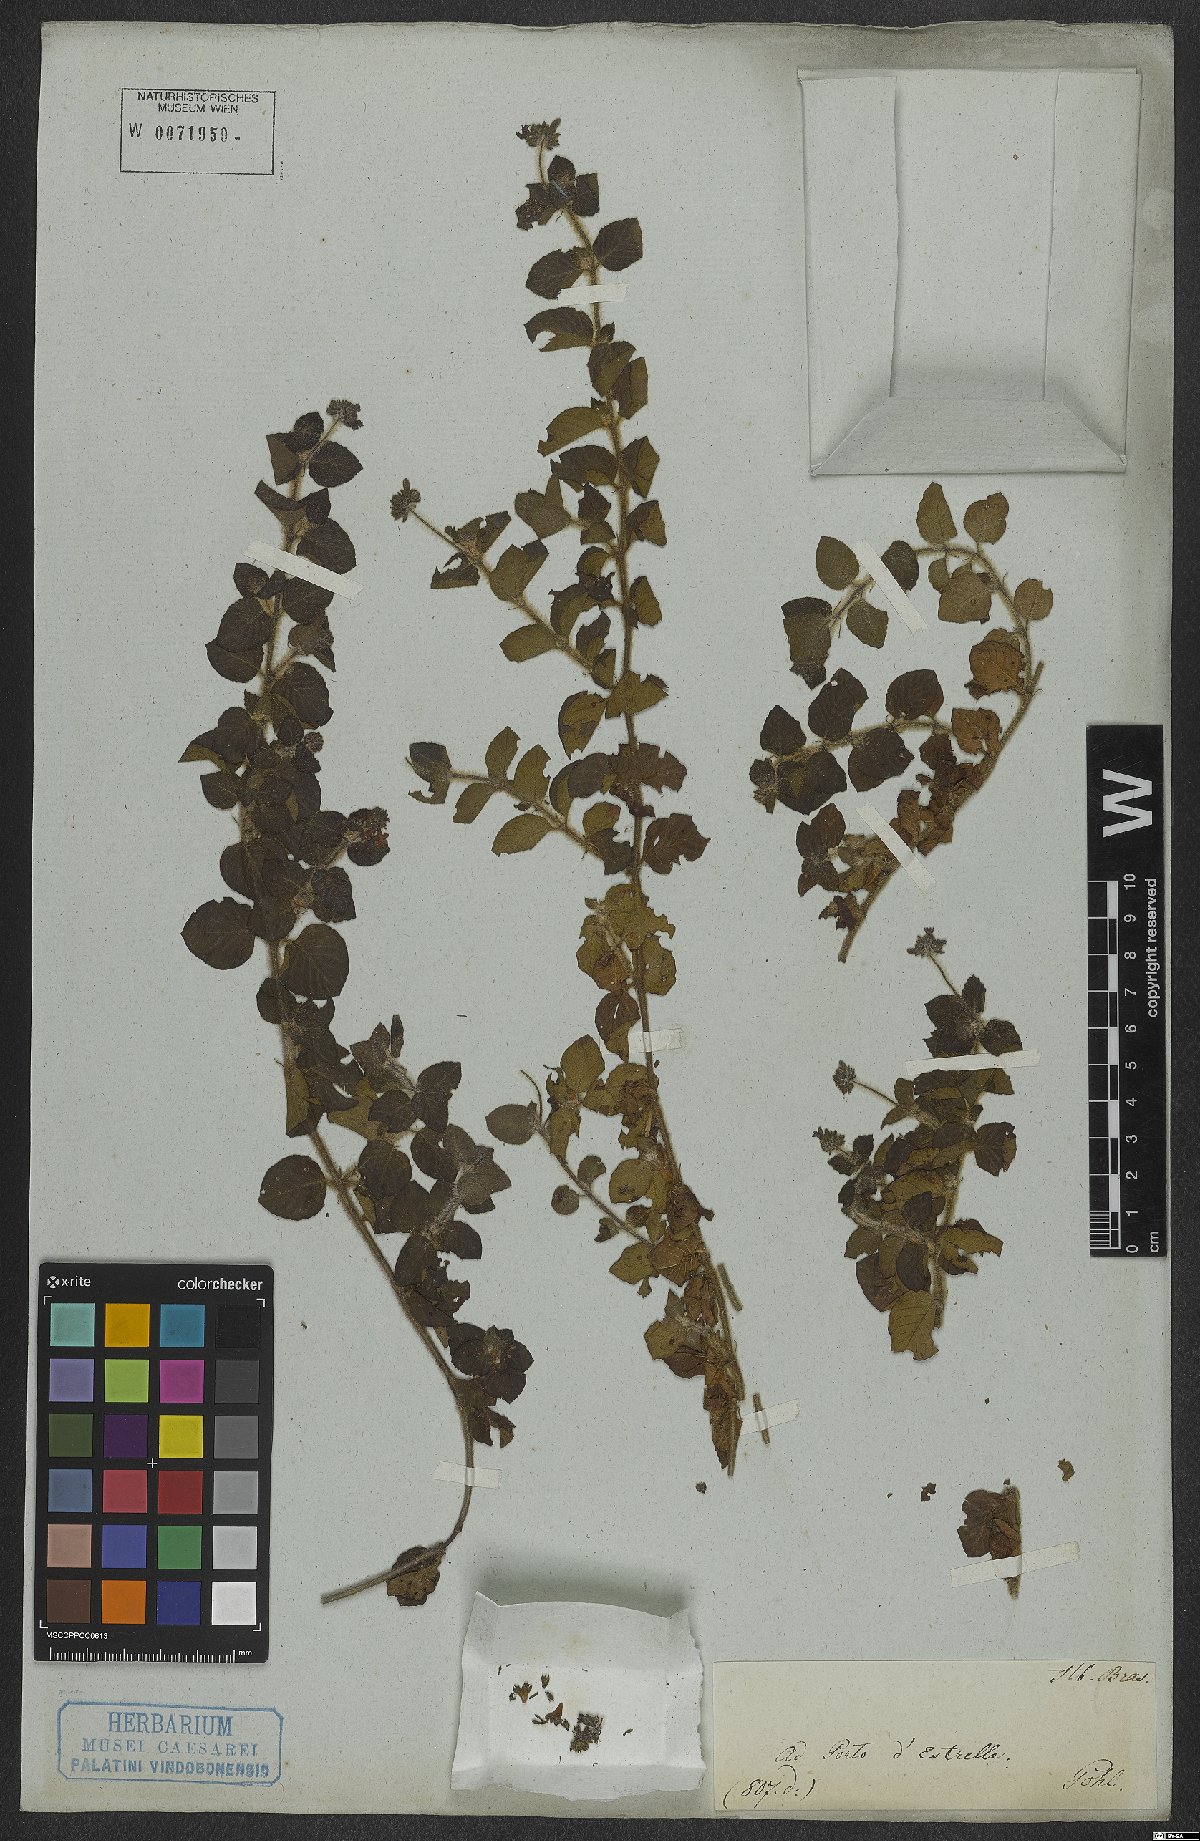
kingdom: Plantae
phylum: Tracheophyta
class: Magnoliopsida
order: Gentianales
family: Rubiaceae
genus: Coccocypselum
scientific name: Coccocypselum
